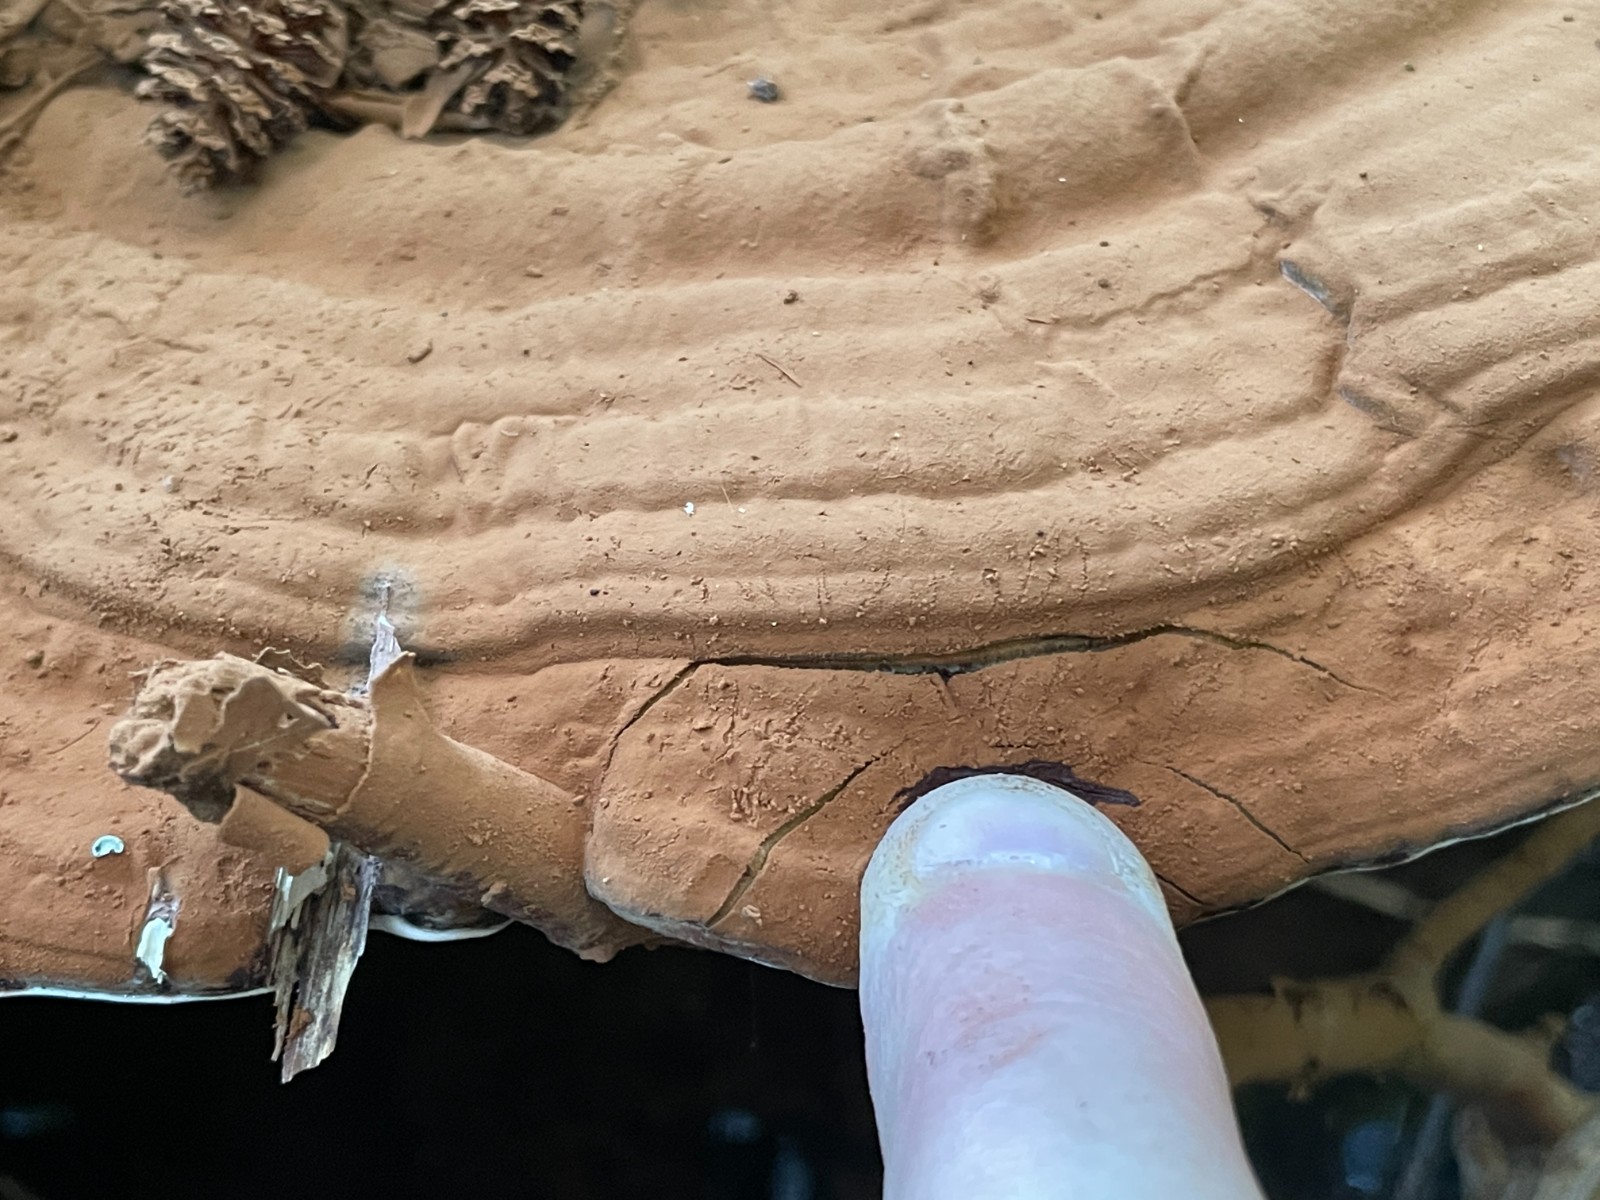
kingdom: Fungi
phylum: Basidiomycota
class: Agaricomycetes
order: Polyporales
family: Polyporaceae
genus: Ganoderma
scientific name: Ganoderma applanatum
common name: flad lakporesvamp
